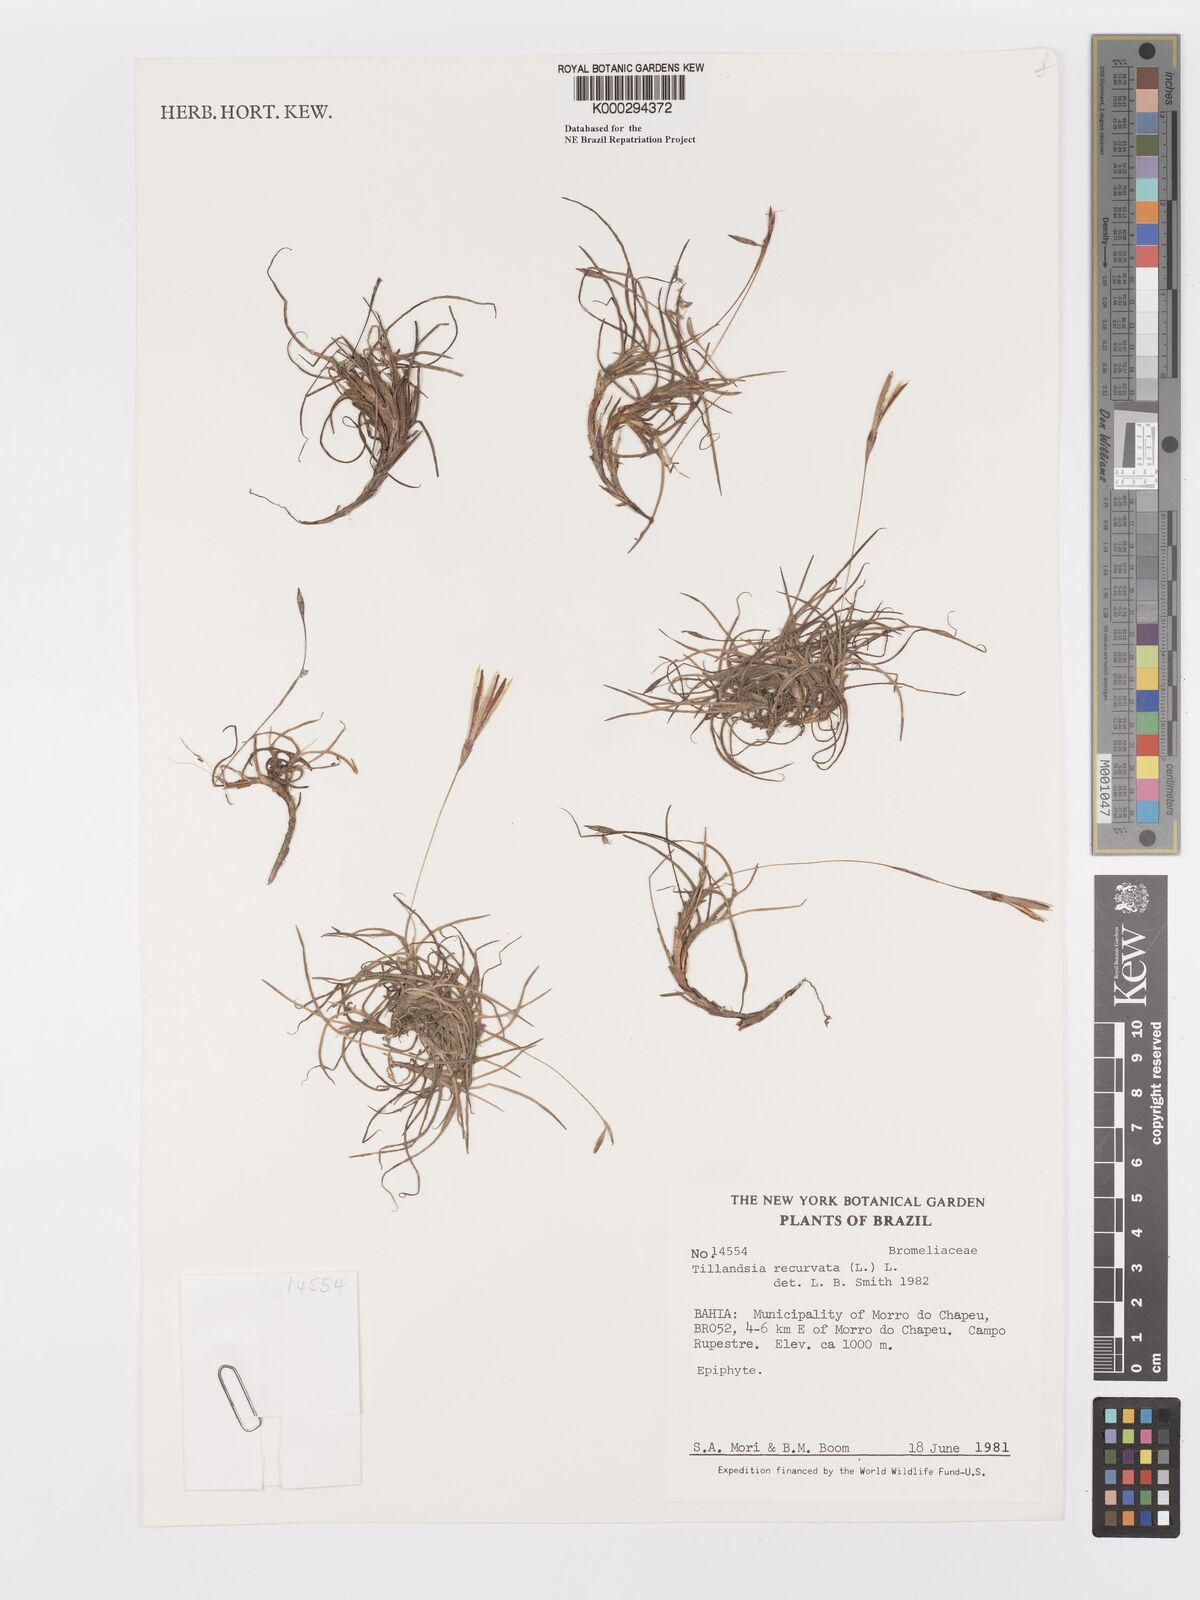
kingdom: Plantae
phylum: Tracheophyta
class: Liliopsida
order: Poales
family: Bromeliaceae
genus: Tillandsia
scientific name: Tillandsia recurvata
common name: Small ballmoss
